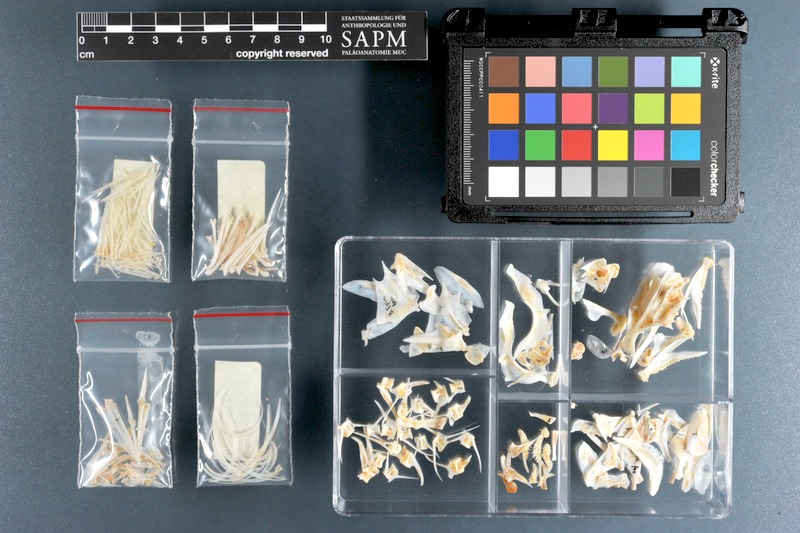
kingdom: Animalia
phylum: Chordata
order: Perciformes
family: Serranidae
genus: Epinephelus
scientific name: Epinephelus fasciatus
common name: Blacktip grouper
